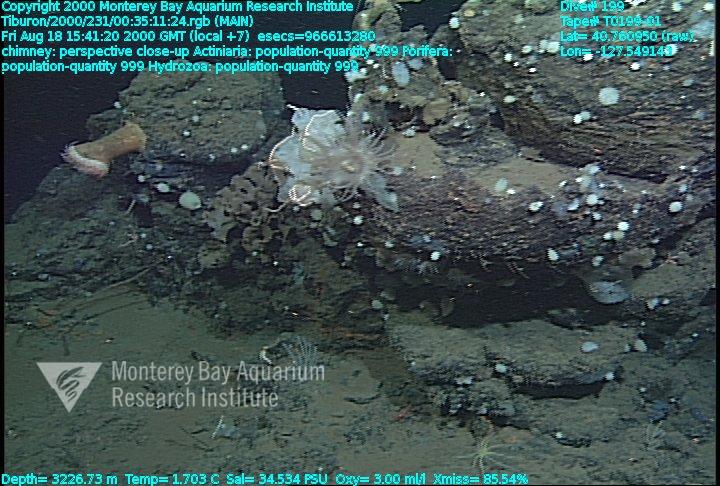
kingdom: Animalia
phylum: Porifera
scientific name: Porifera
